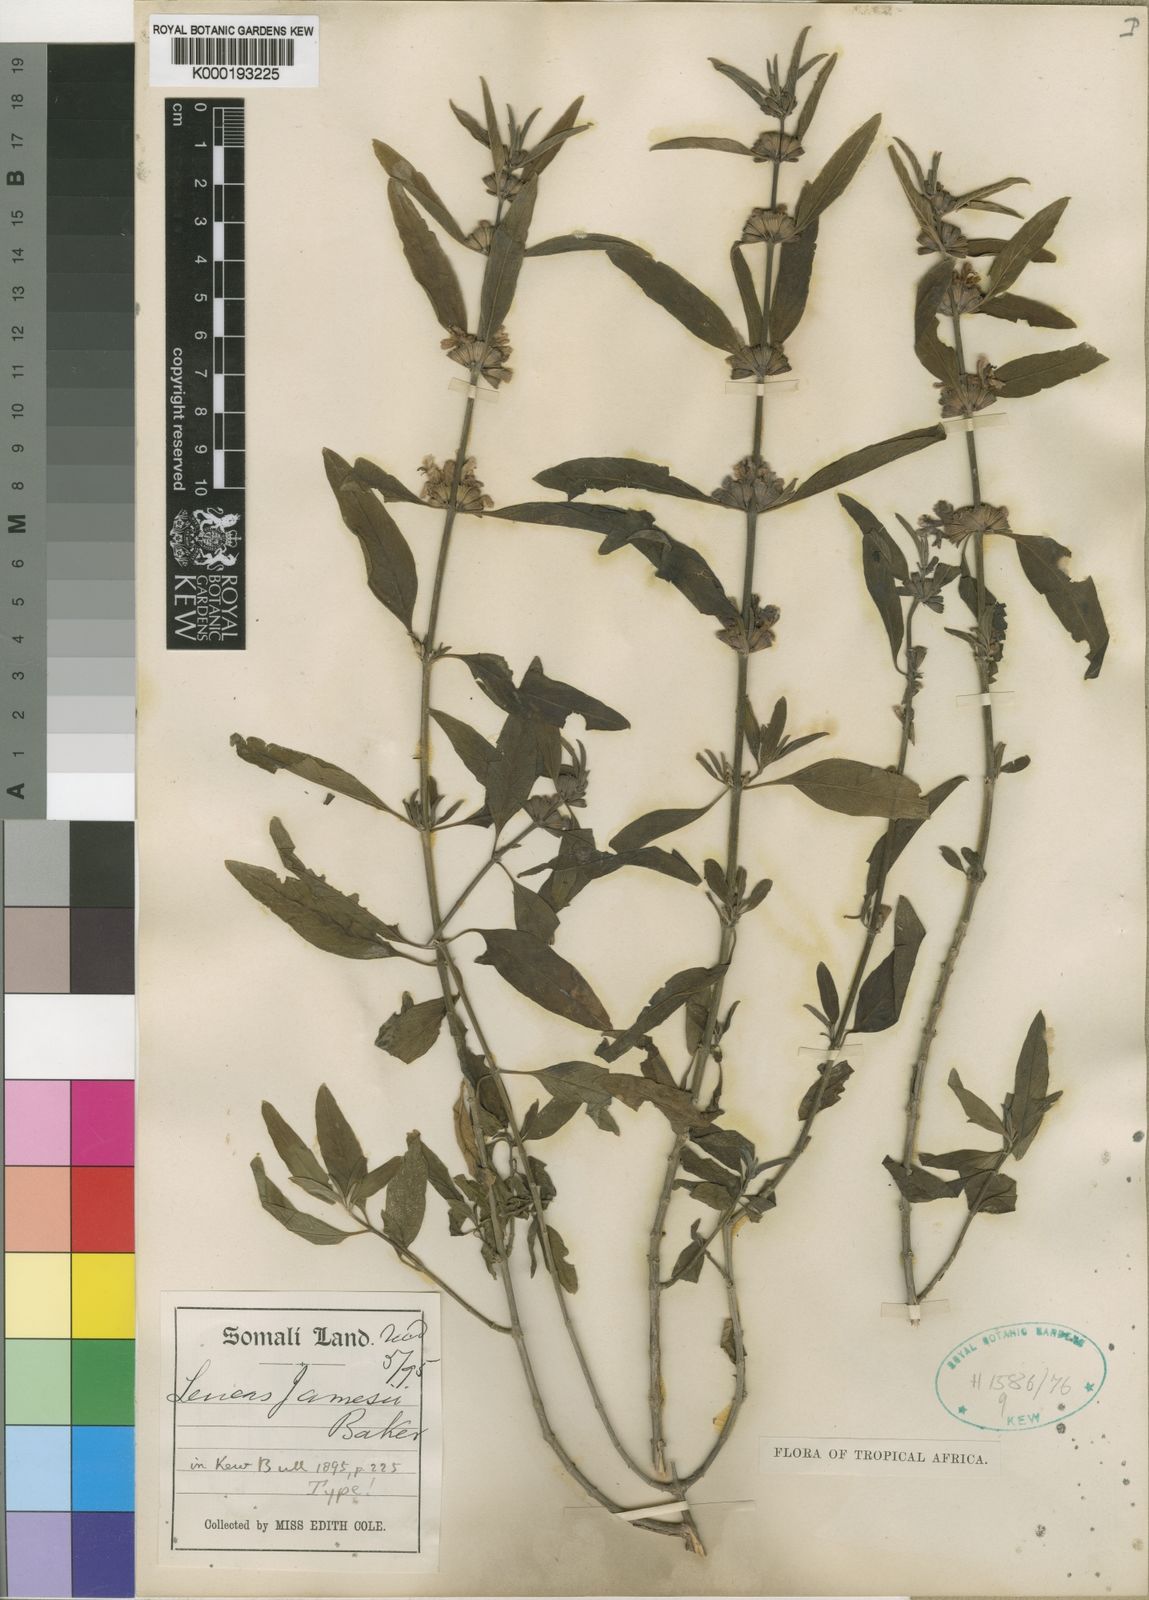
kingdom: Plantae
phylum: Tracheophyta
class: Magnoliopsida
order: Lamiales
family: Lamiaceae
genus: Leucas
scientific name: Leucas jamesii
